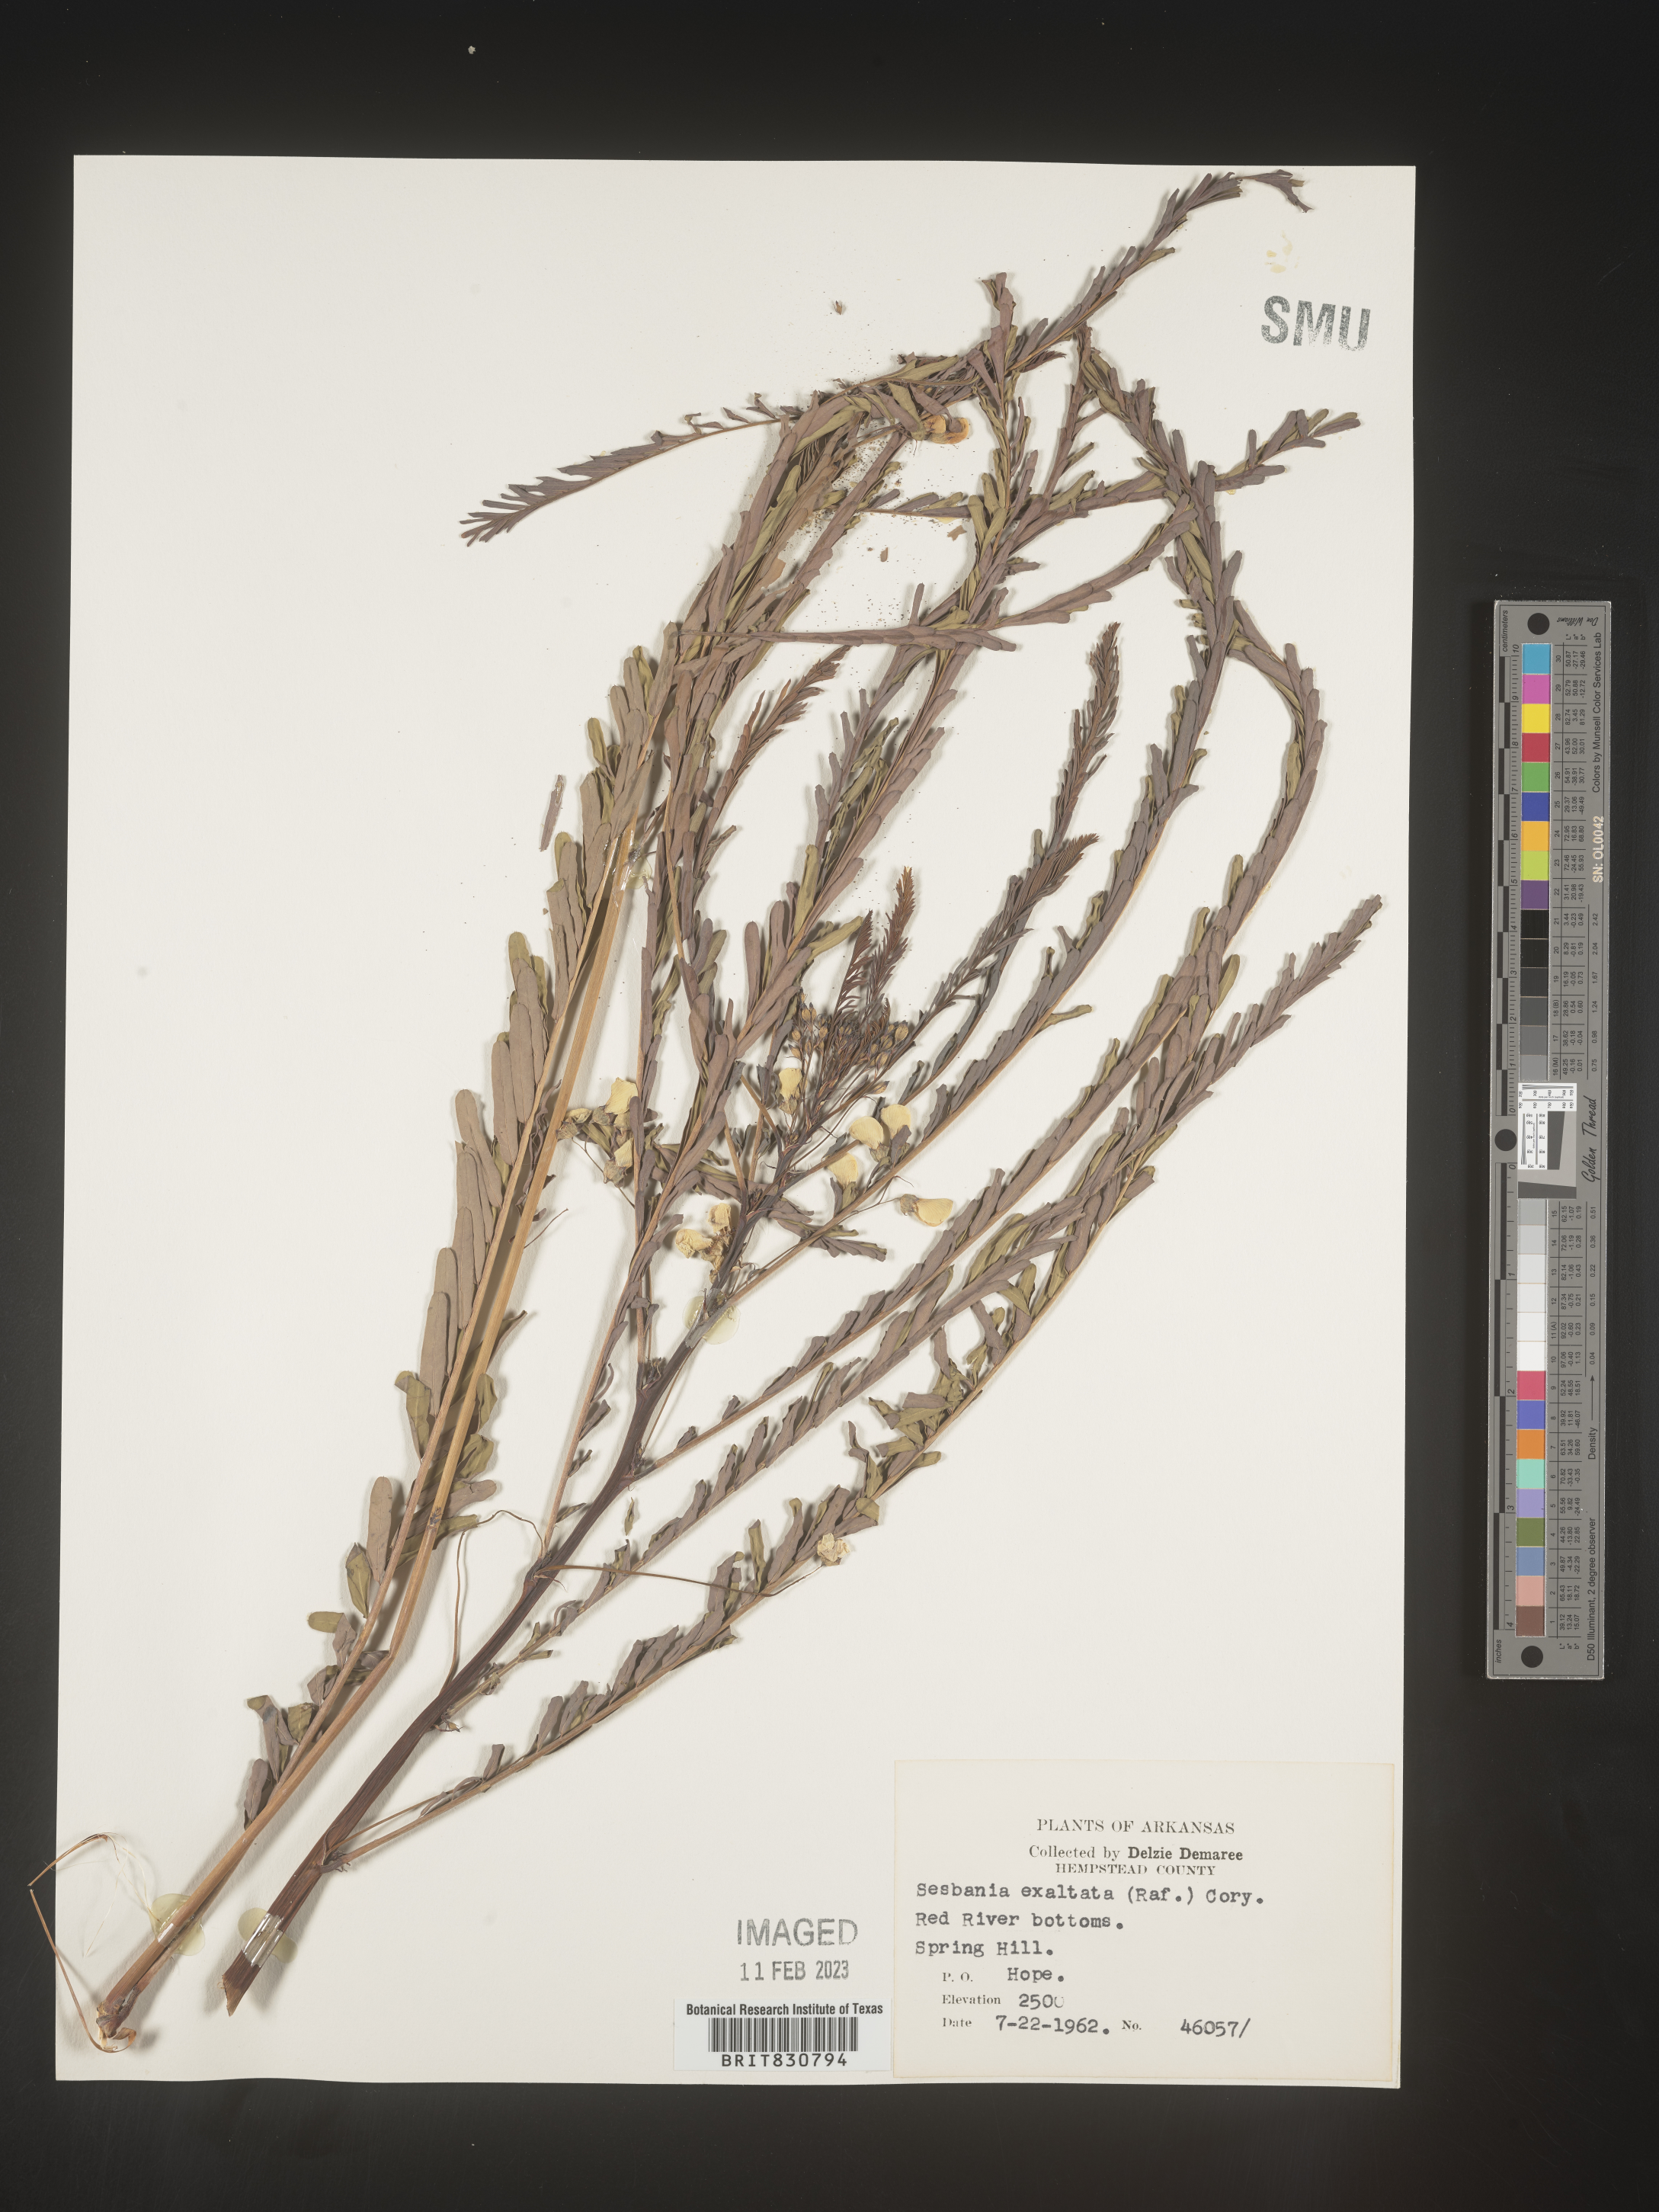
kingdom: Plantae
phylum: Tracheophyta
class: Magnoliopsida
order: Fabales
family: Fabaceae
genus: Sesbania
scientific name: Sesbania vesicaria
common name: Bagpod
